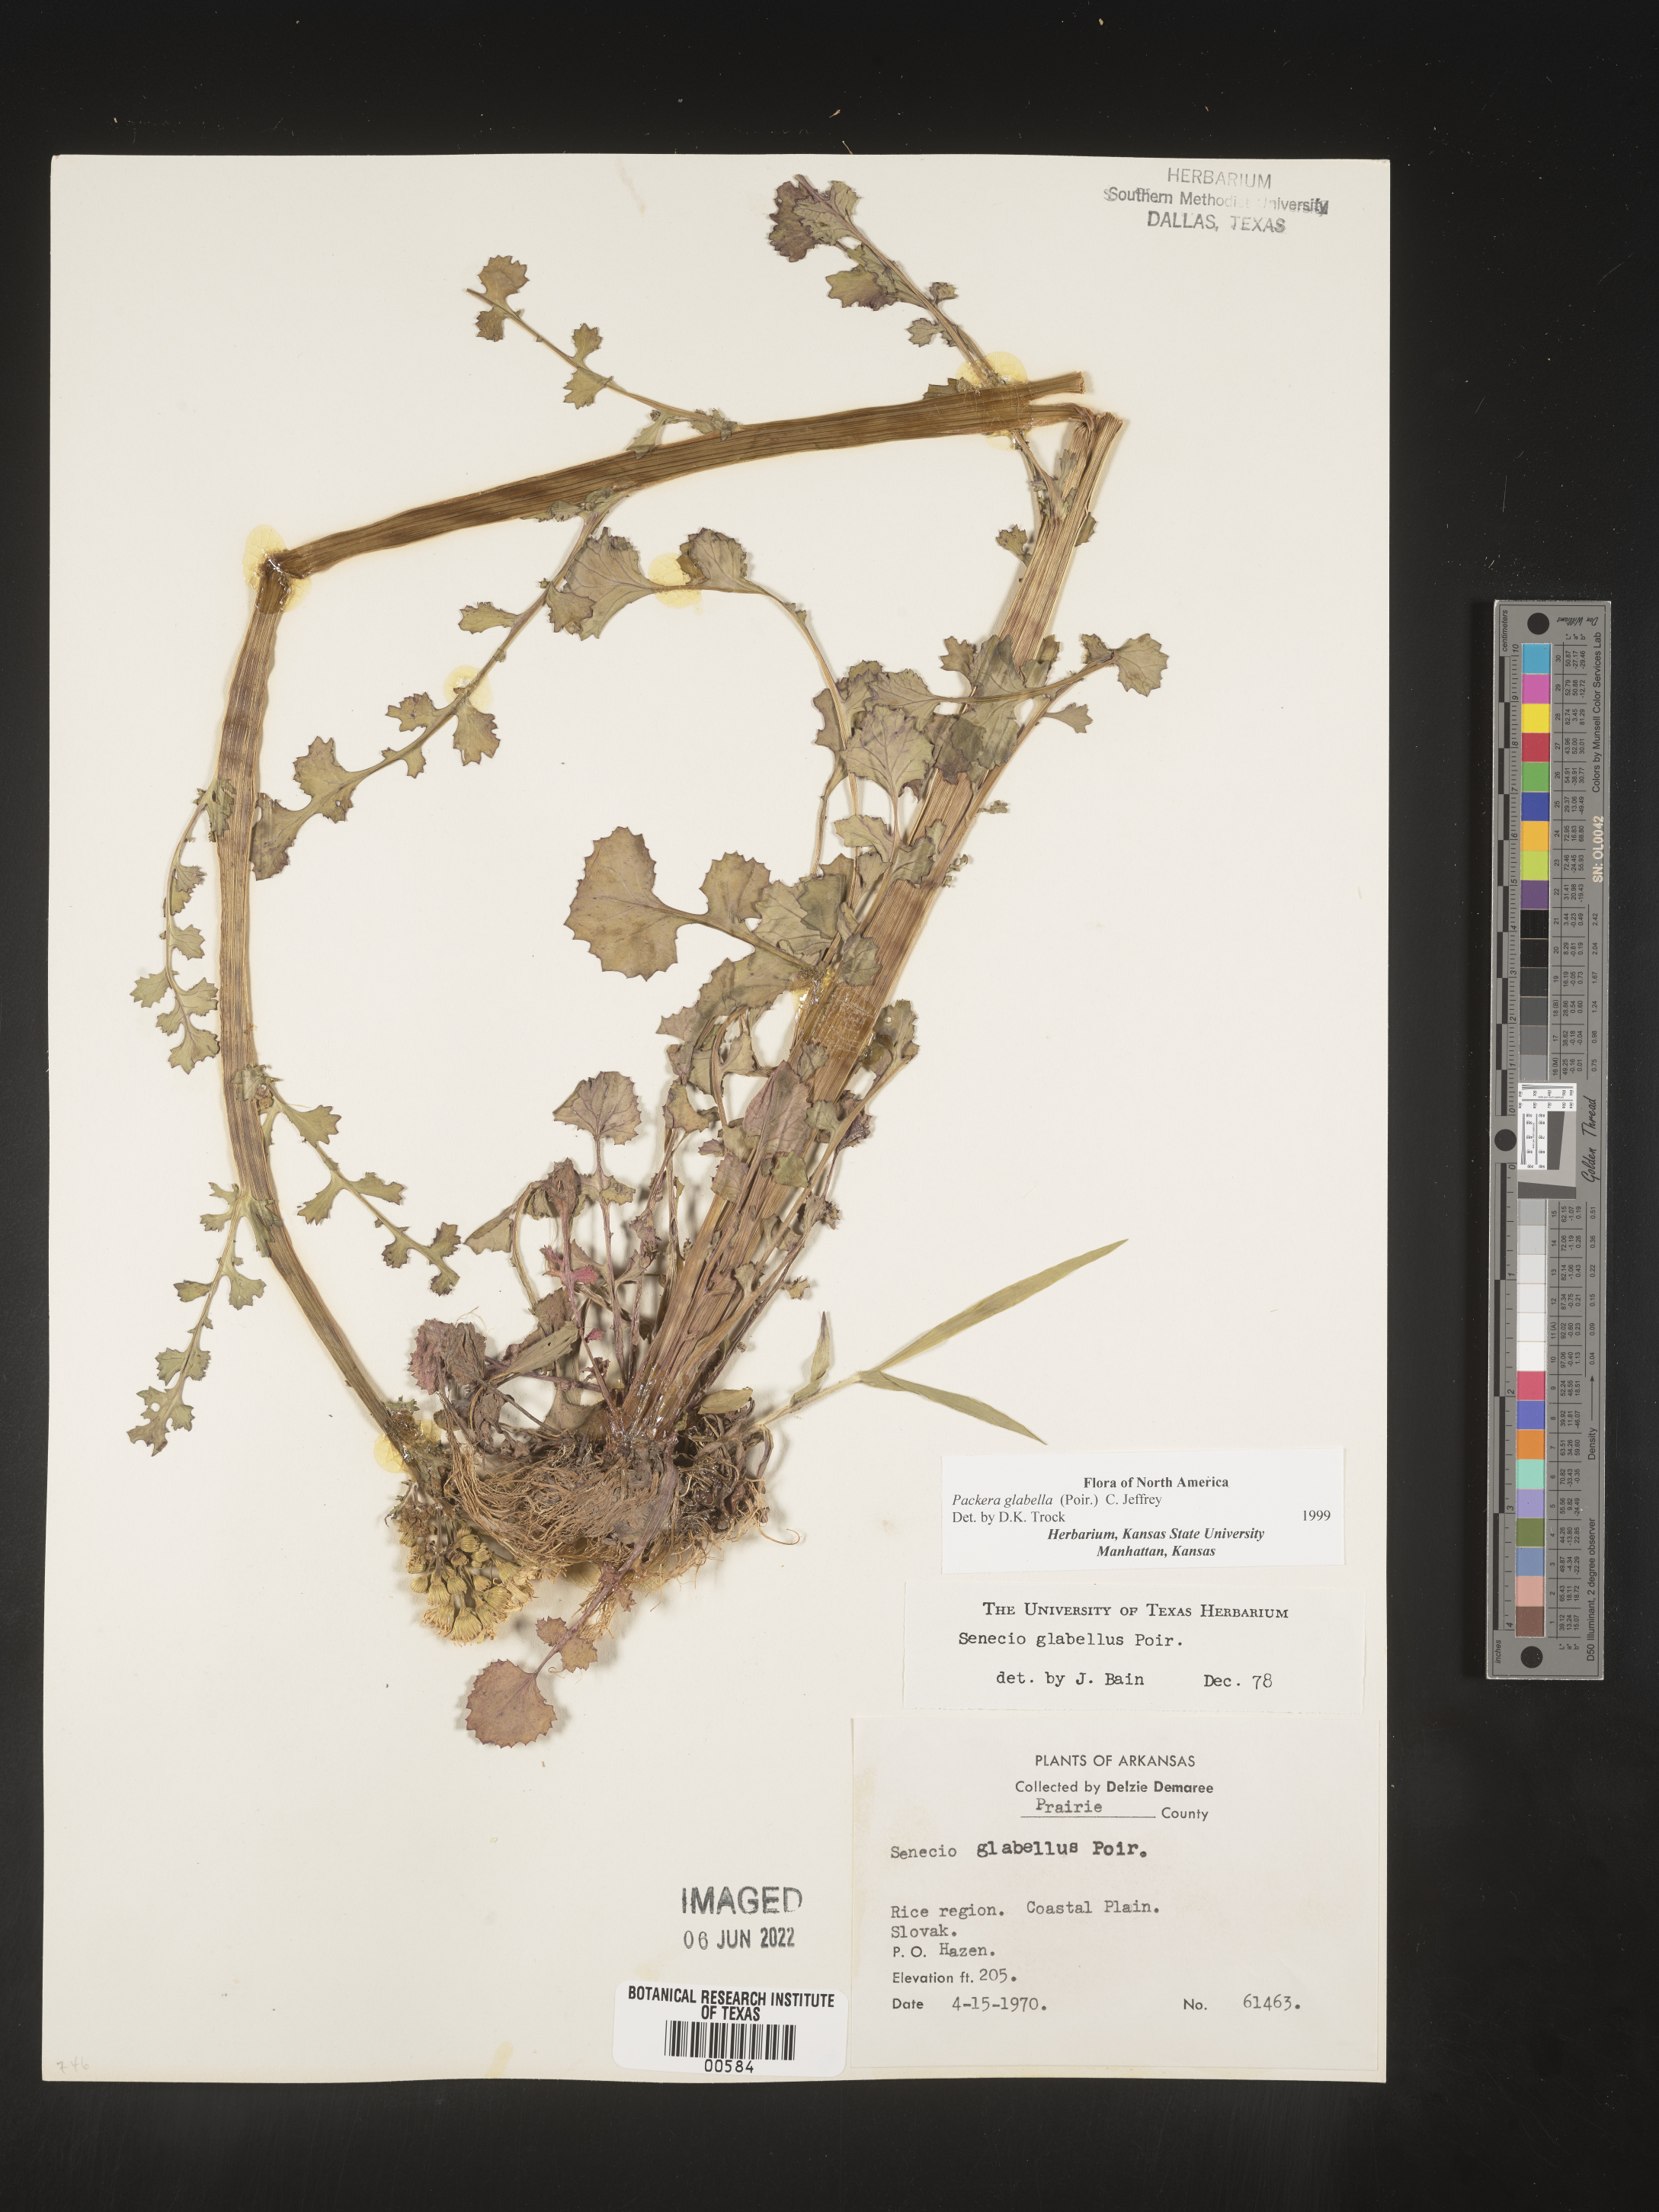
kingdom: Plantae
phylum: Tracheophyta
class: Magnoliopsida
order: Asterales
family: Asteraceae
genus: Packera
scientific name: Packera glabella
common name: Butterweed
